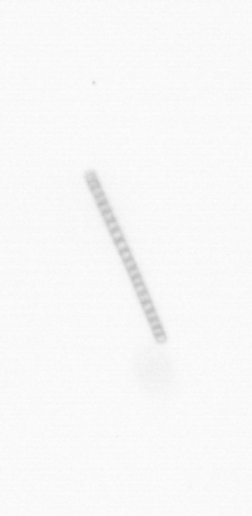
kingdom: Chromista
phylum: Ochrophyta
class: Bacillariophyceae
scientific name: Bacillariophyceae
